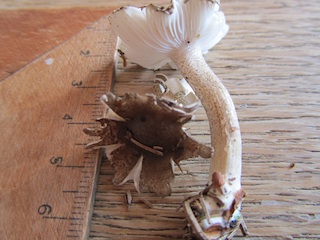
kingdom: Fungi
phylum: Basidiomycota
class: Agaricomycetes
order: Agaricales
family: Hygrophoraceae
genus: Hygrophorus
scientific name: Hygrophorus pustulatus
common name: mørkprikket sneglehat
